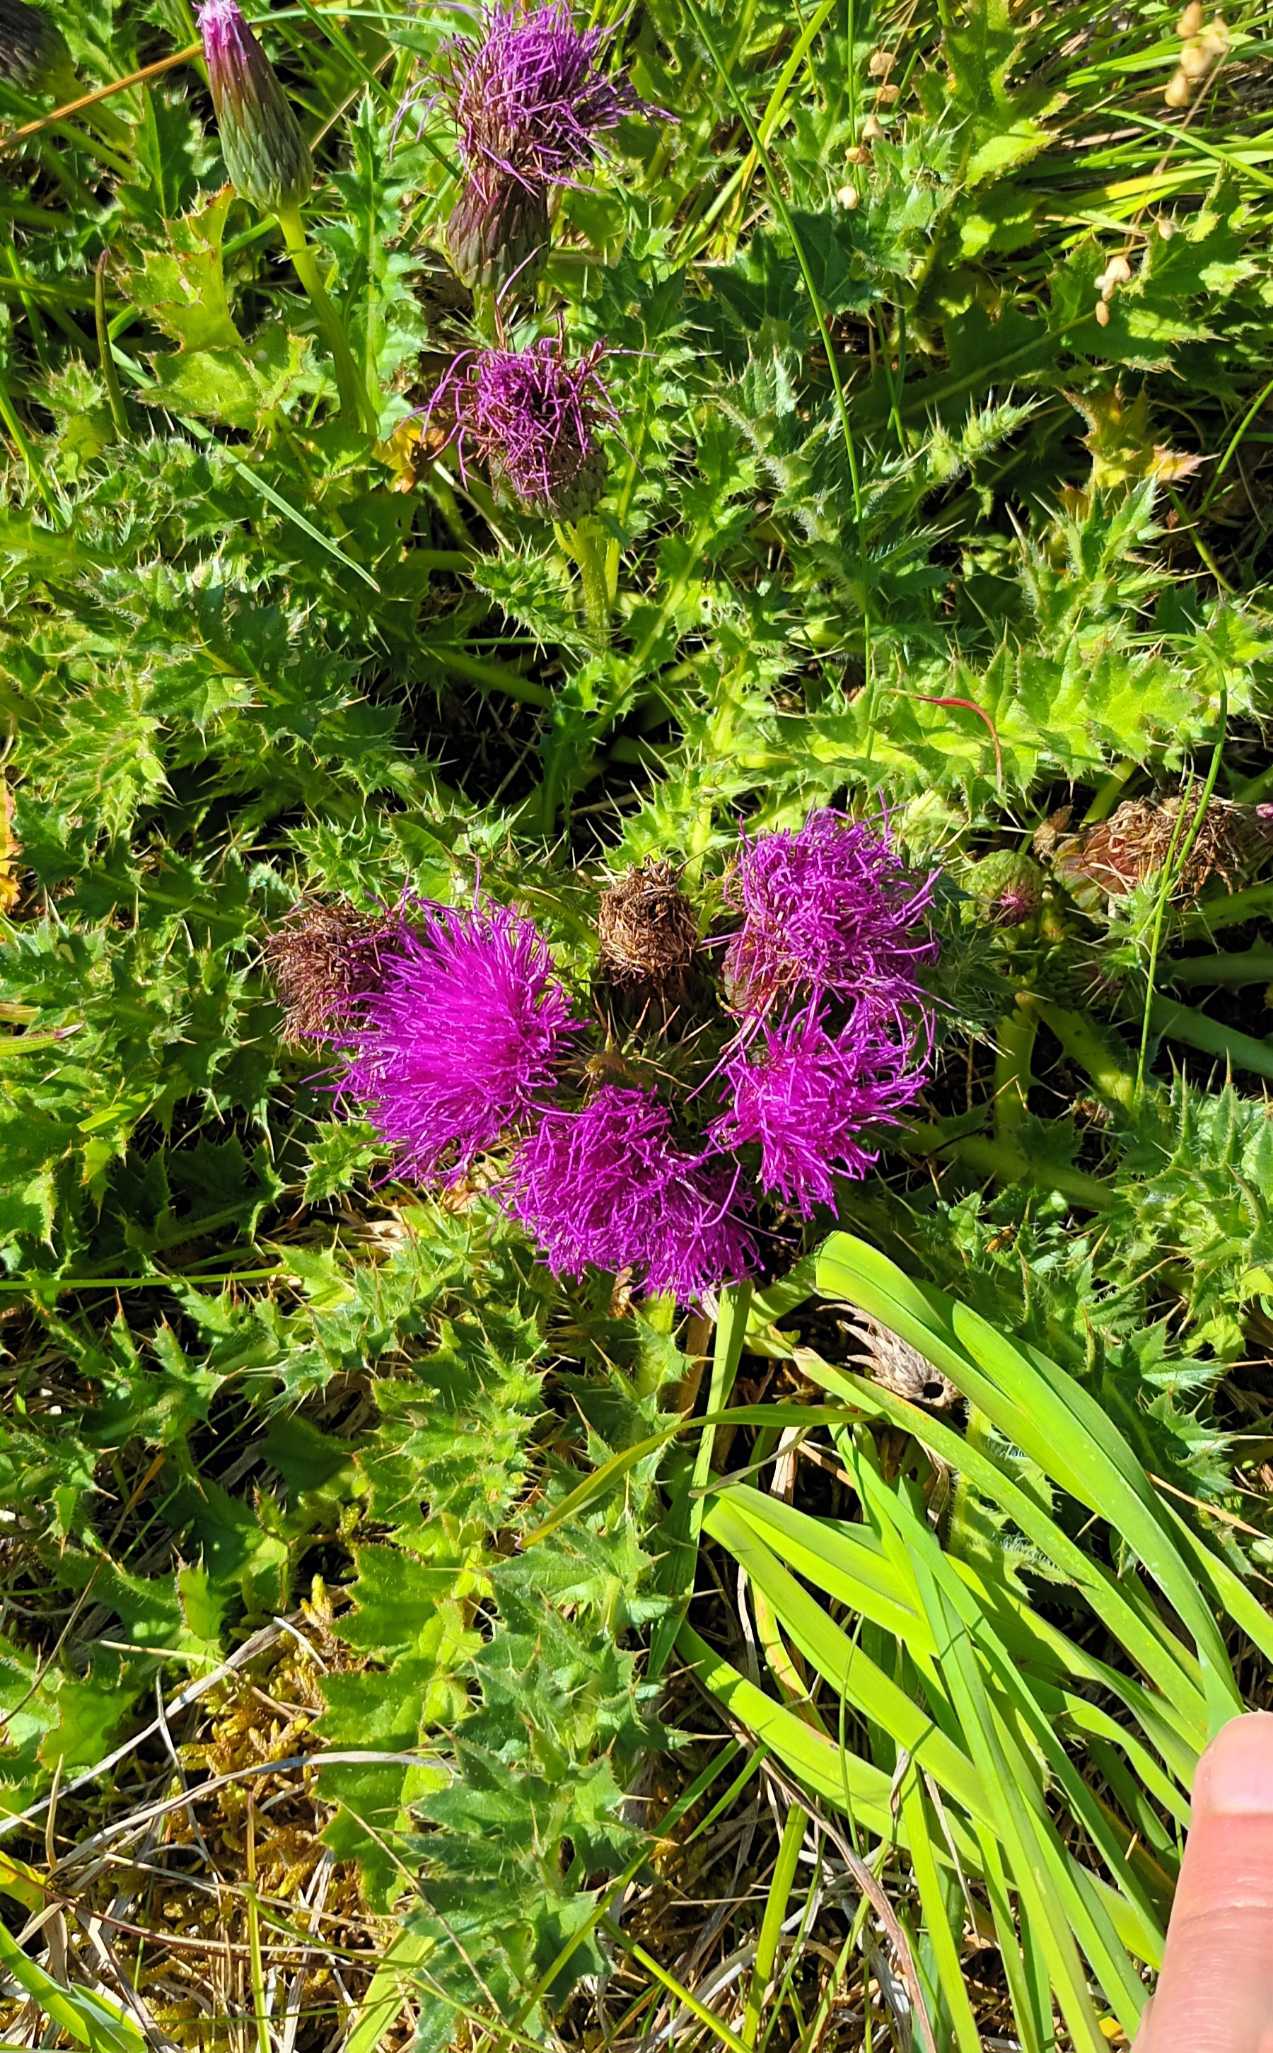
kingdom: Plantae
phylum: Tracheophyta
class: Magnoliopsida
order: Asterales
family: Asteraceae
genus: Cirsium
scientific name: Cirsium acaule
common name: Lav tidsel
